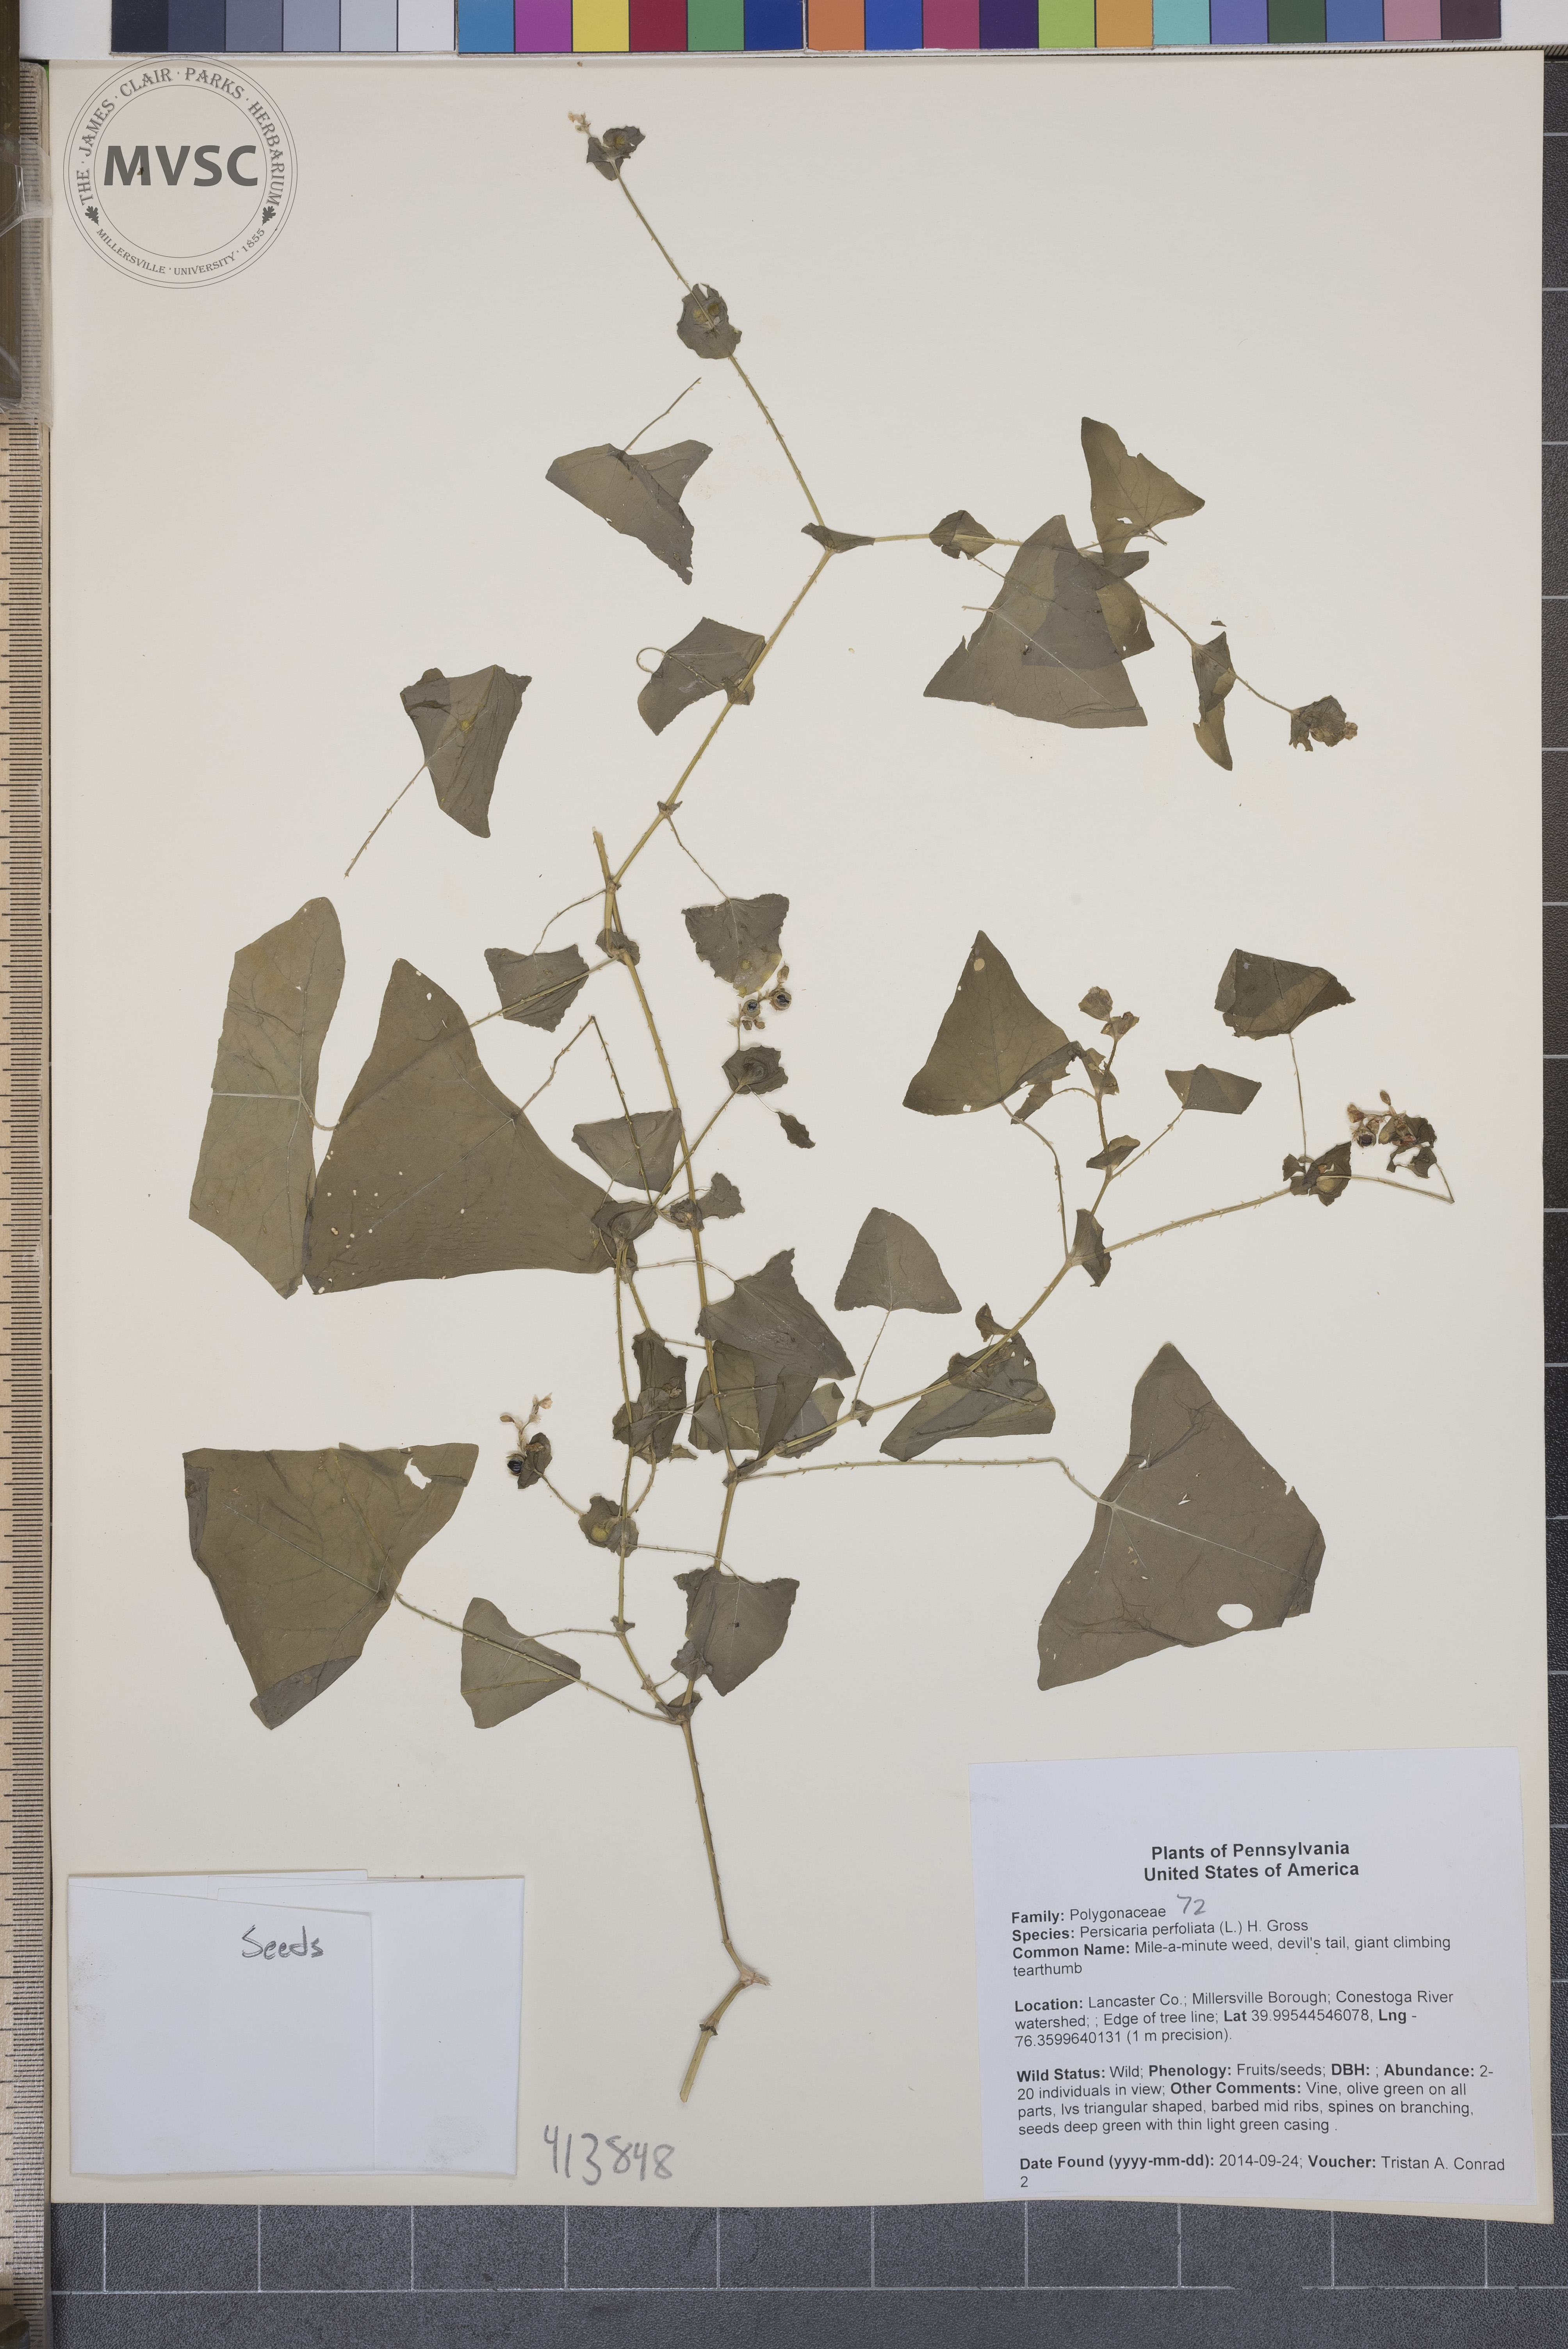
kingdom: Plantae
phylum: Tracheophyta
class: Magnoliopsida
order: Caryophyllales
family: Polygonaceae
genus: Persicaria
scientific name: Persicaria perfoliata
